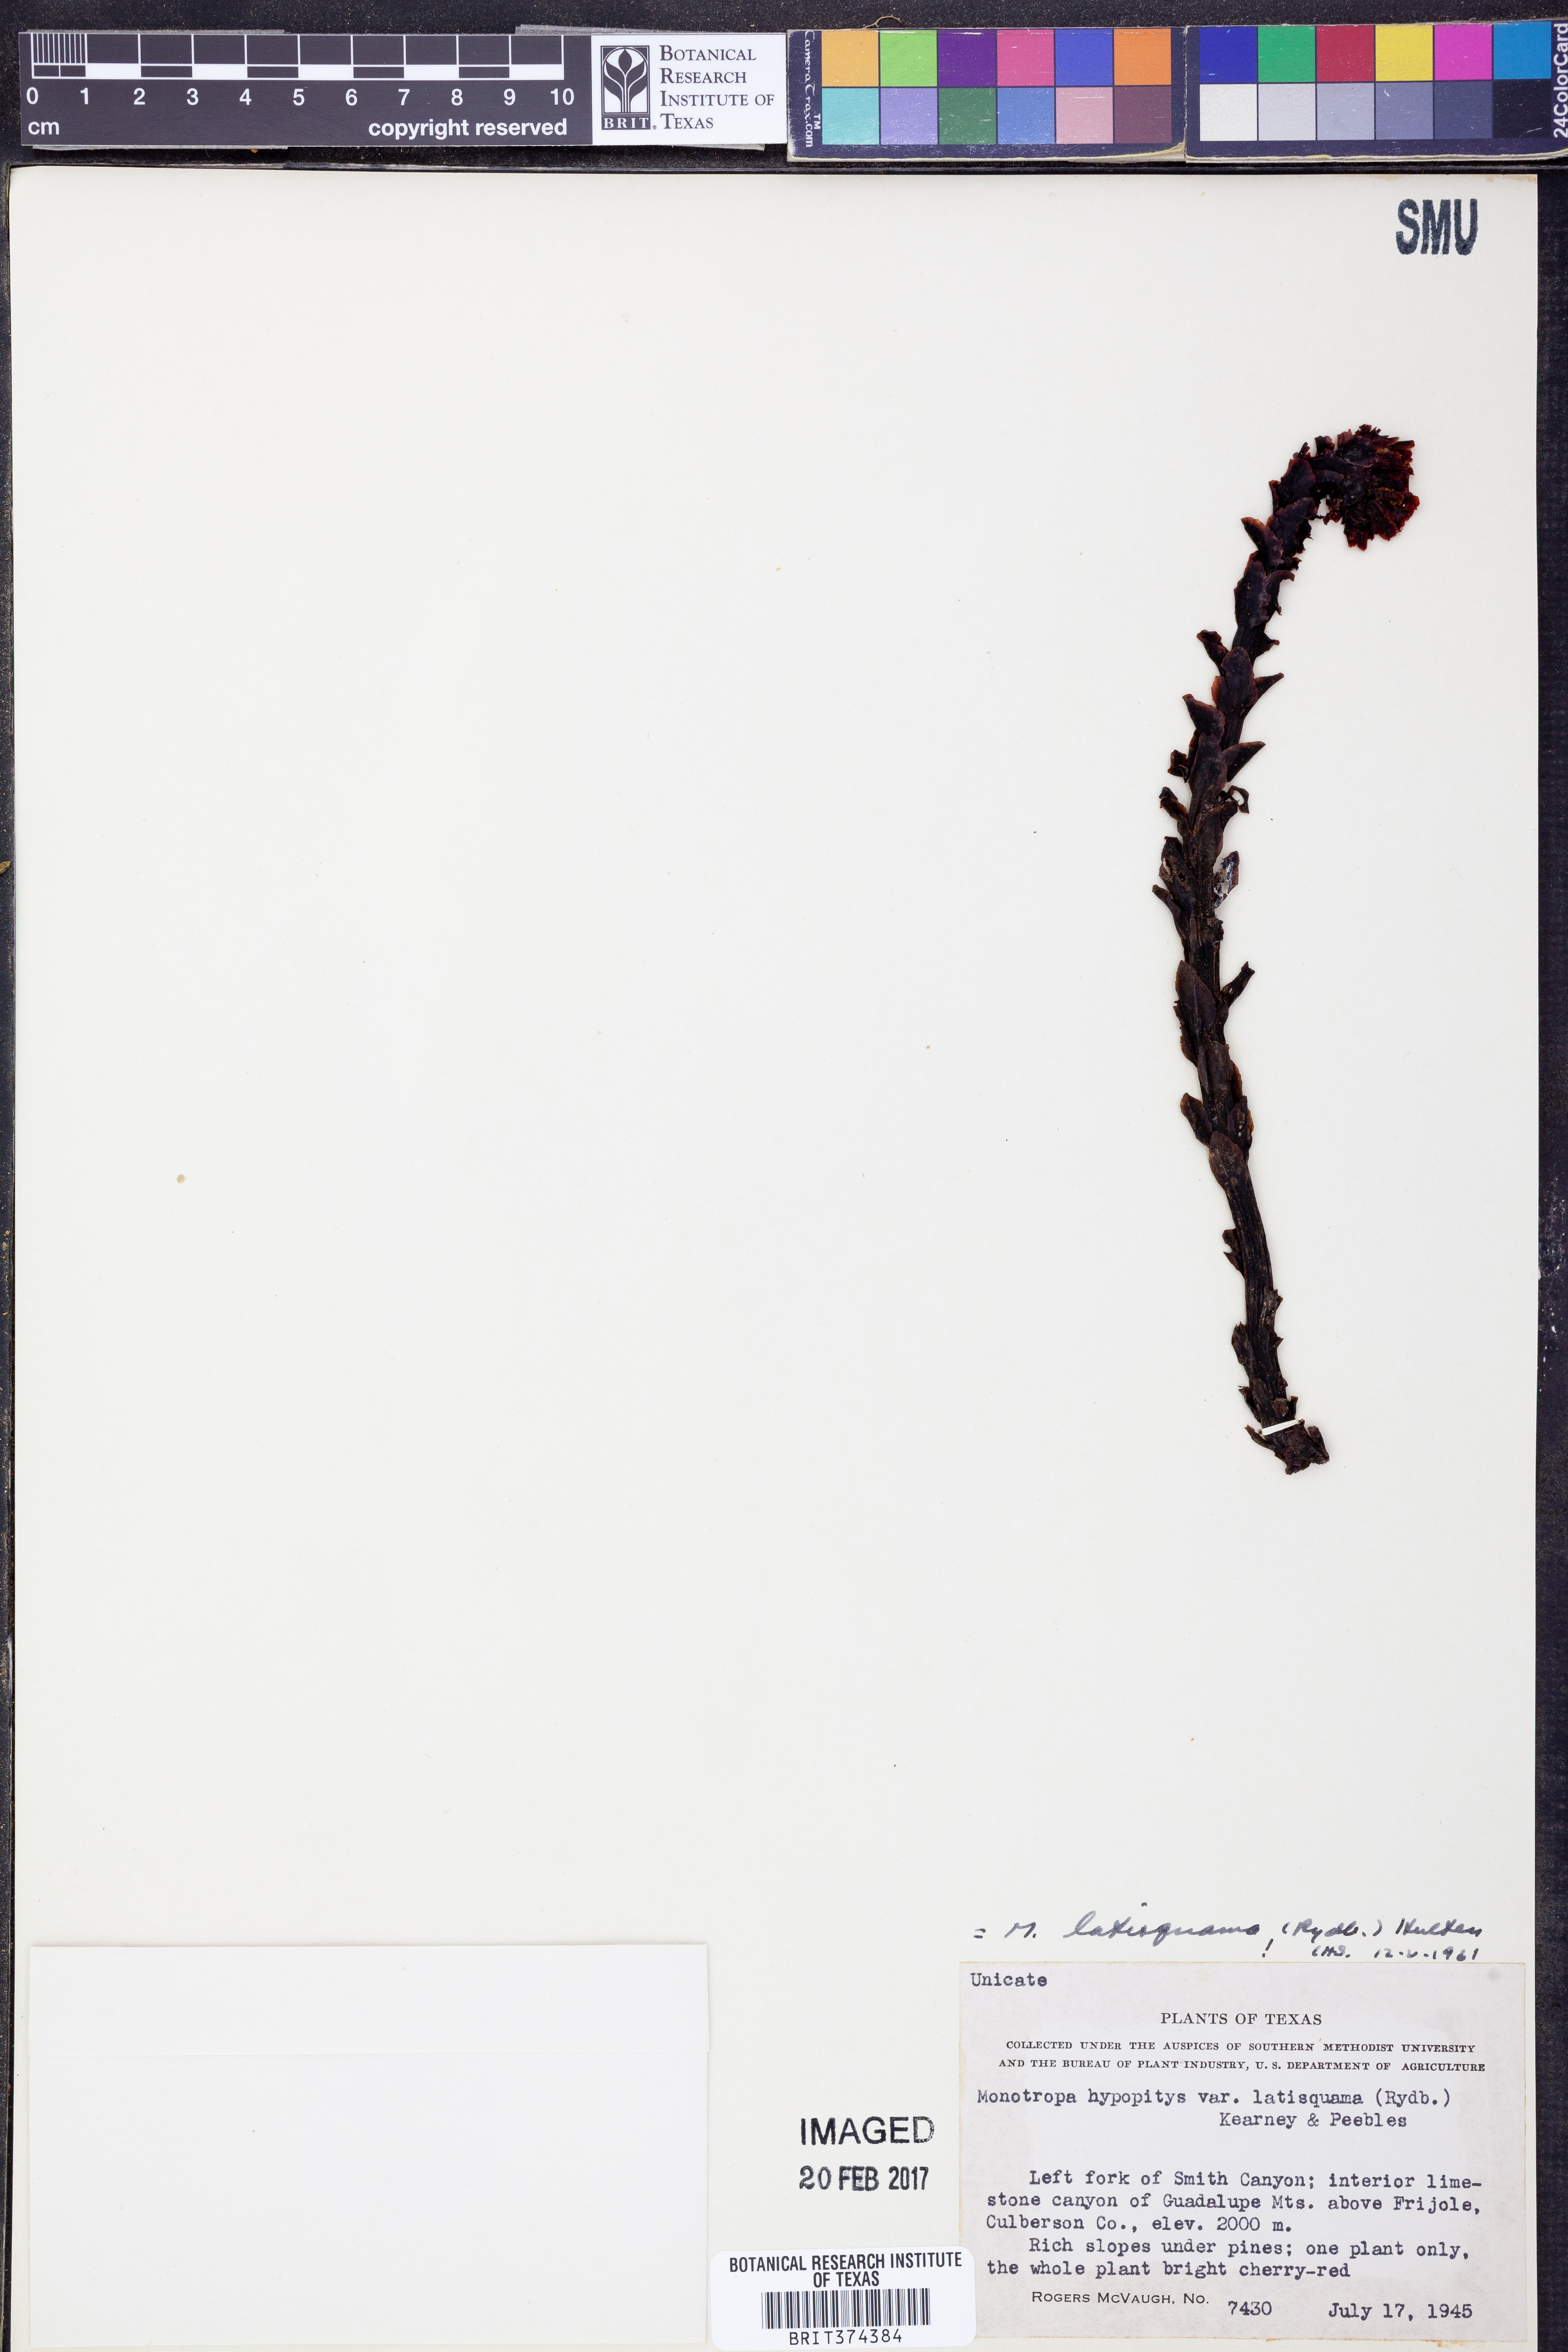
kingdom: Plantae
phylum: Tracheophyta
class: Magnoliopsida
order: Ericales
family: Ericaceae
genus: Hypopitys
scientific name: Hypopitys monotropa
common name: Yellow bird's-nest
